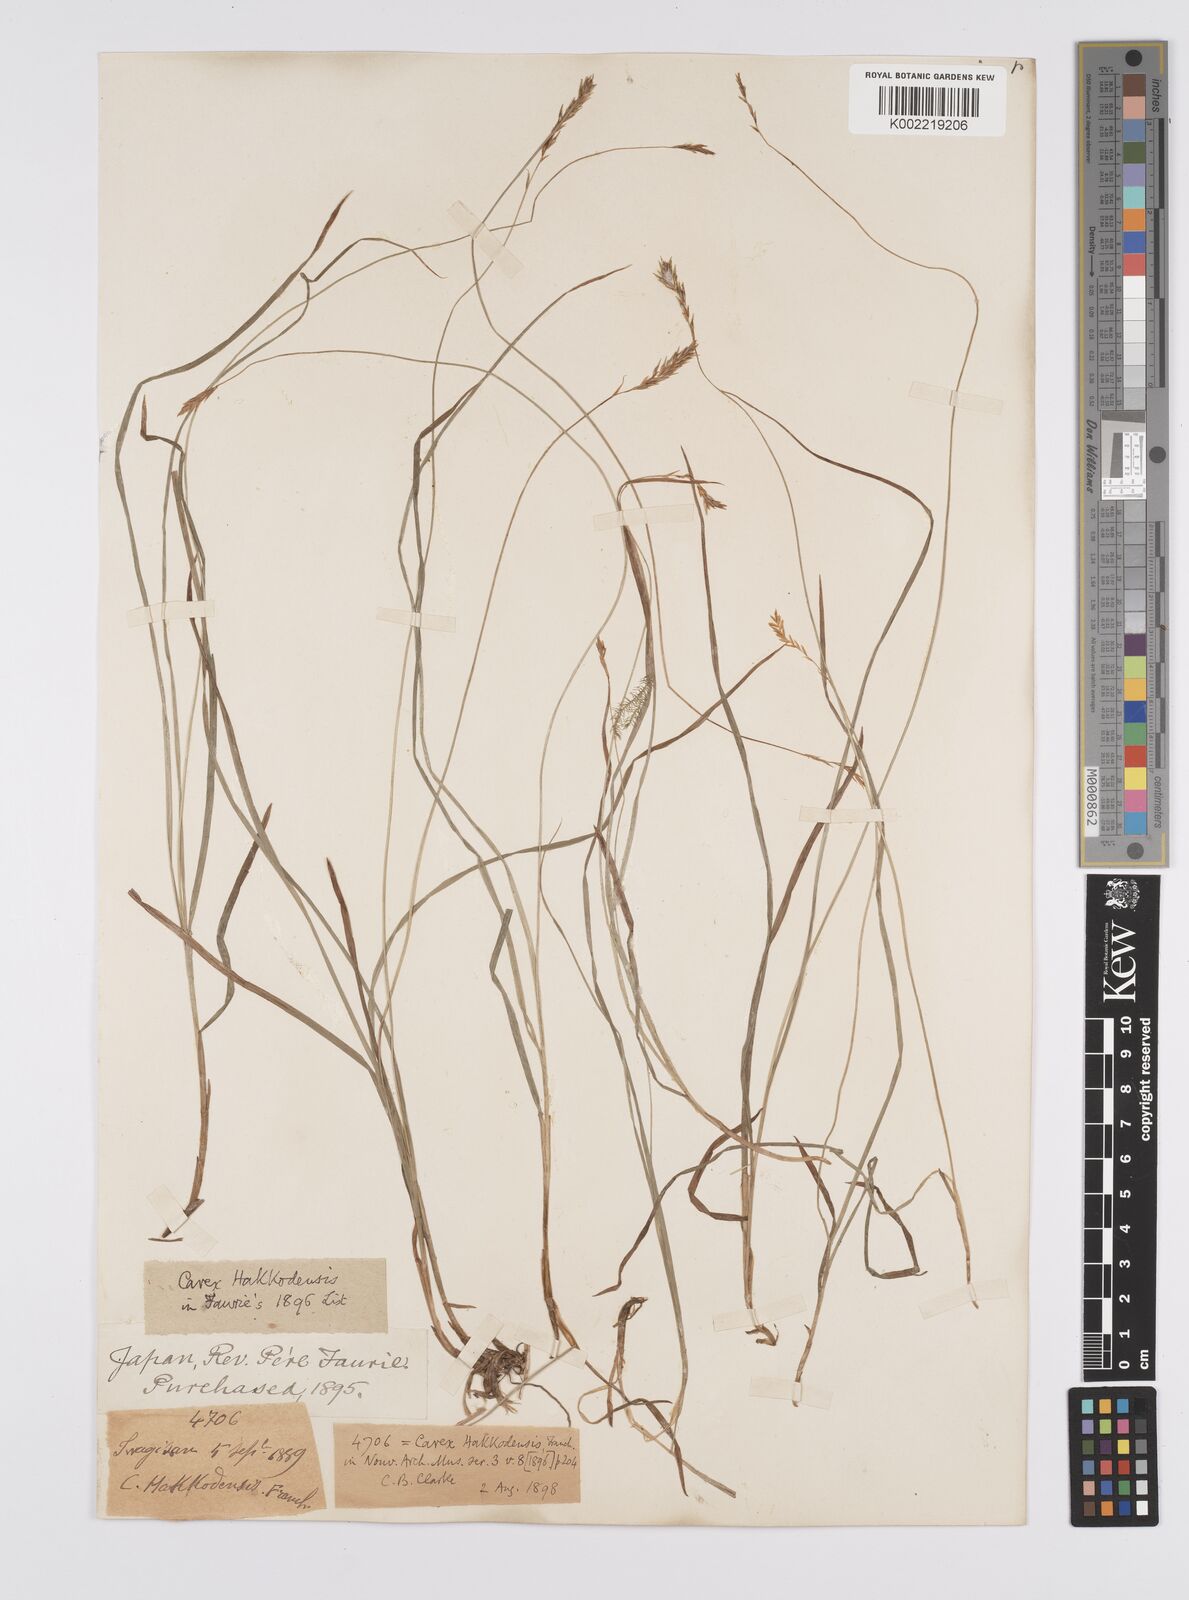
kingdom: Plantae
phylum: Tracheophyta
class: Liliopsida
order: Poales
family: Cyperaceae
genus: Carex
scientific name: Carex hakkodensis
